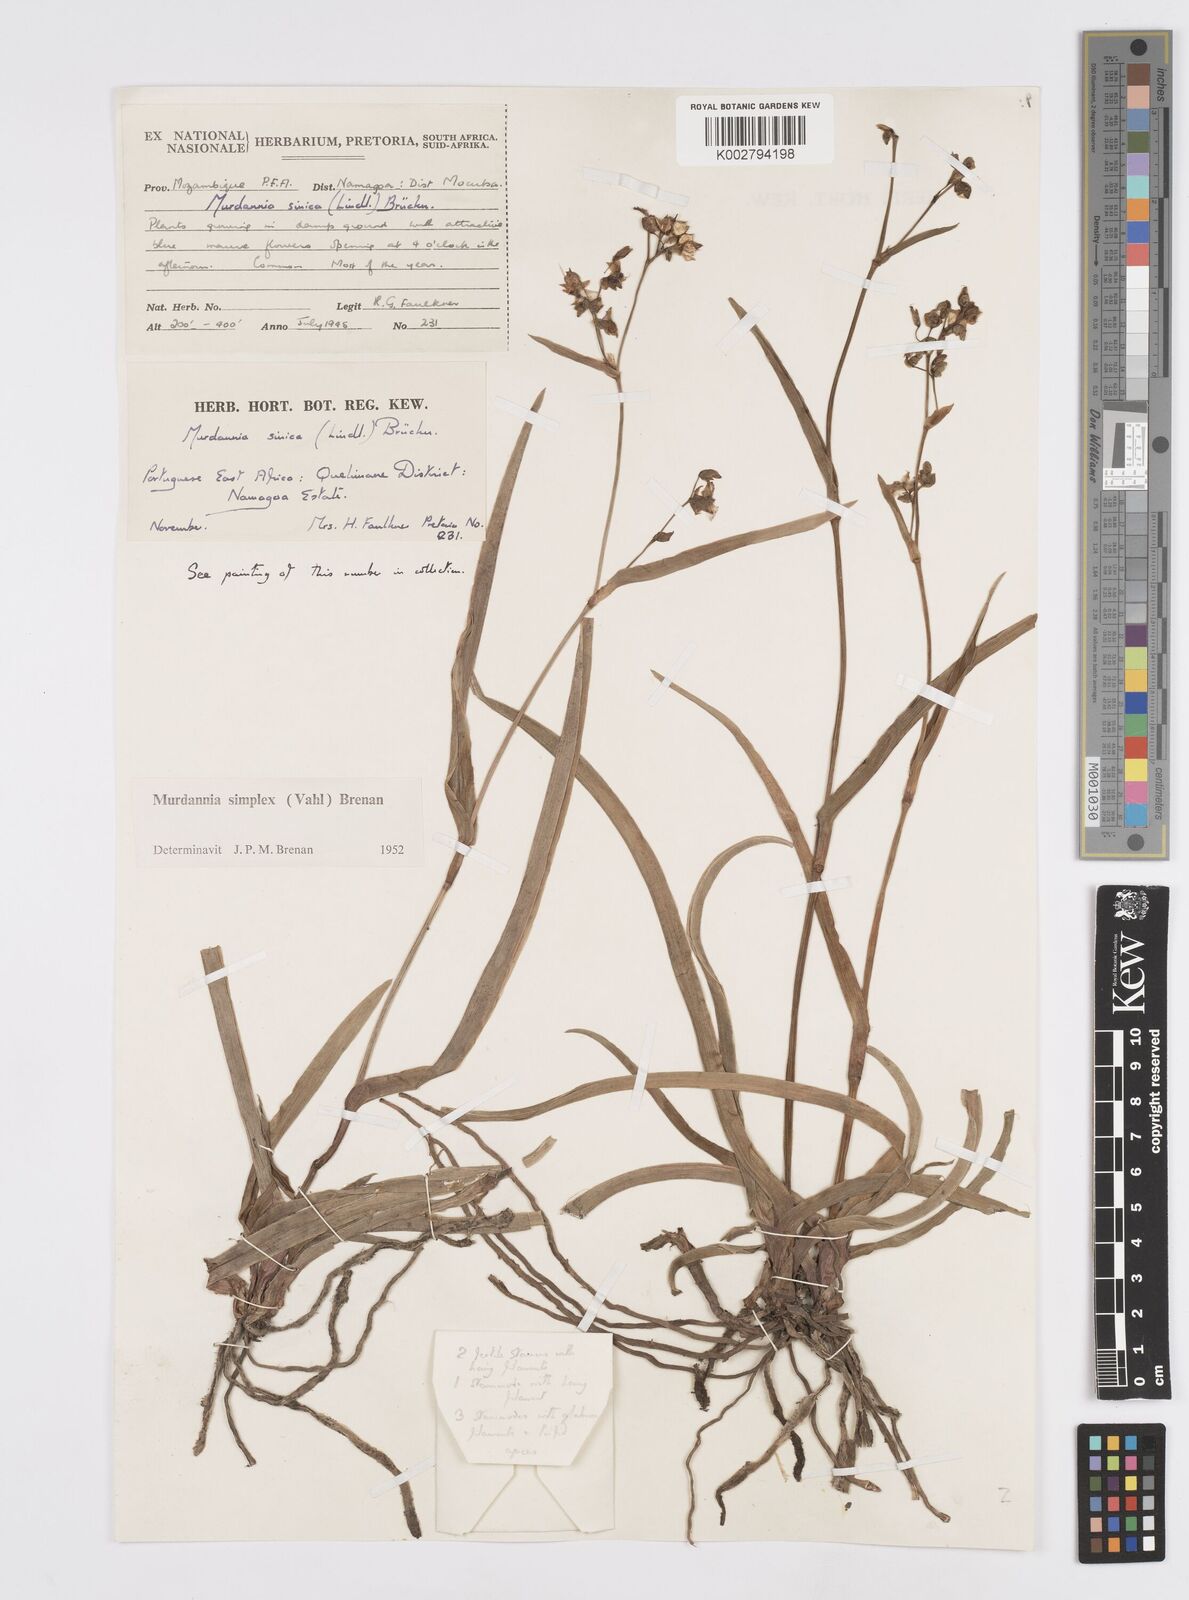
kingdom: Plantae
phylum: Tracheophyta
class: Liliopsida
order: Commelinales
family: Commelinaceae
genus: Murdannia
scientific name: Murdannia simplex
